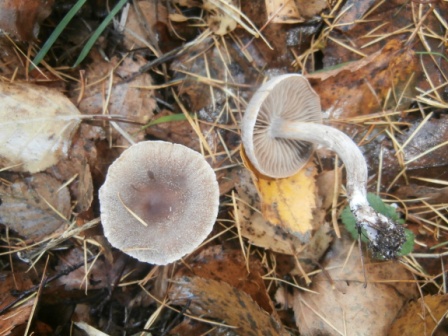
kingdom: Fungi
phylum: Basidiomycota
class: Agaricomycetes
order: Agaricales
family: Cortinariaceae
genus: Cortinarius
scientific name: Cortinarius hemitrichus
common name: hvidfnugget slørhat
